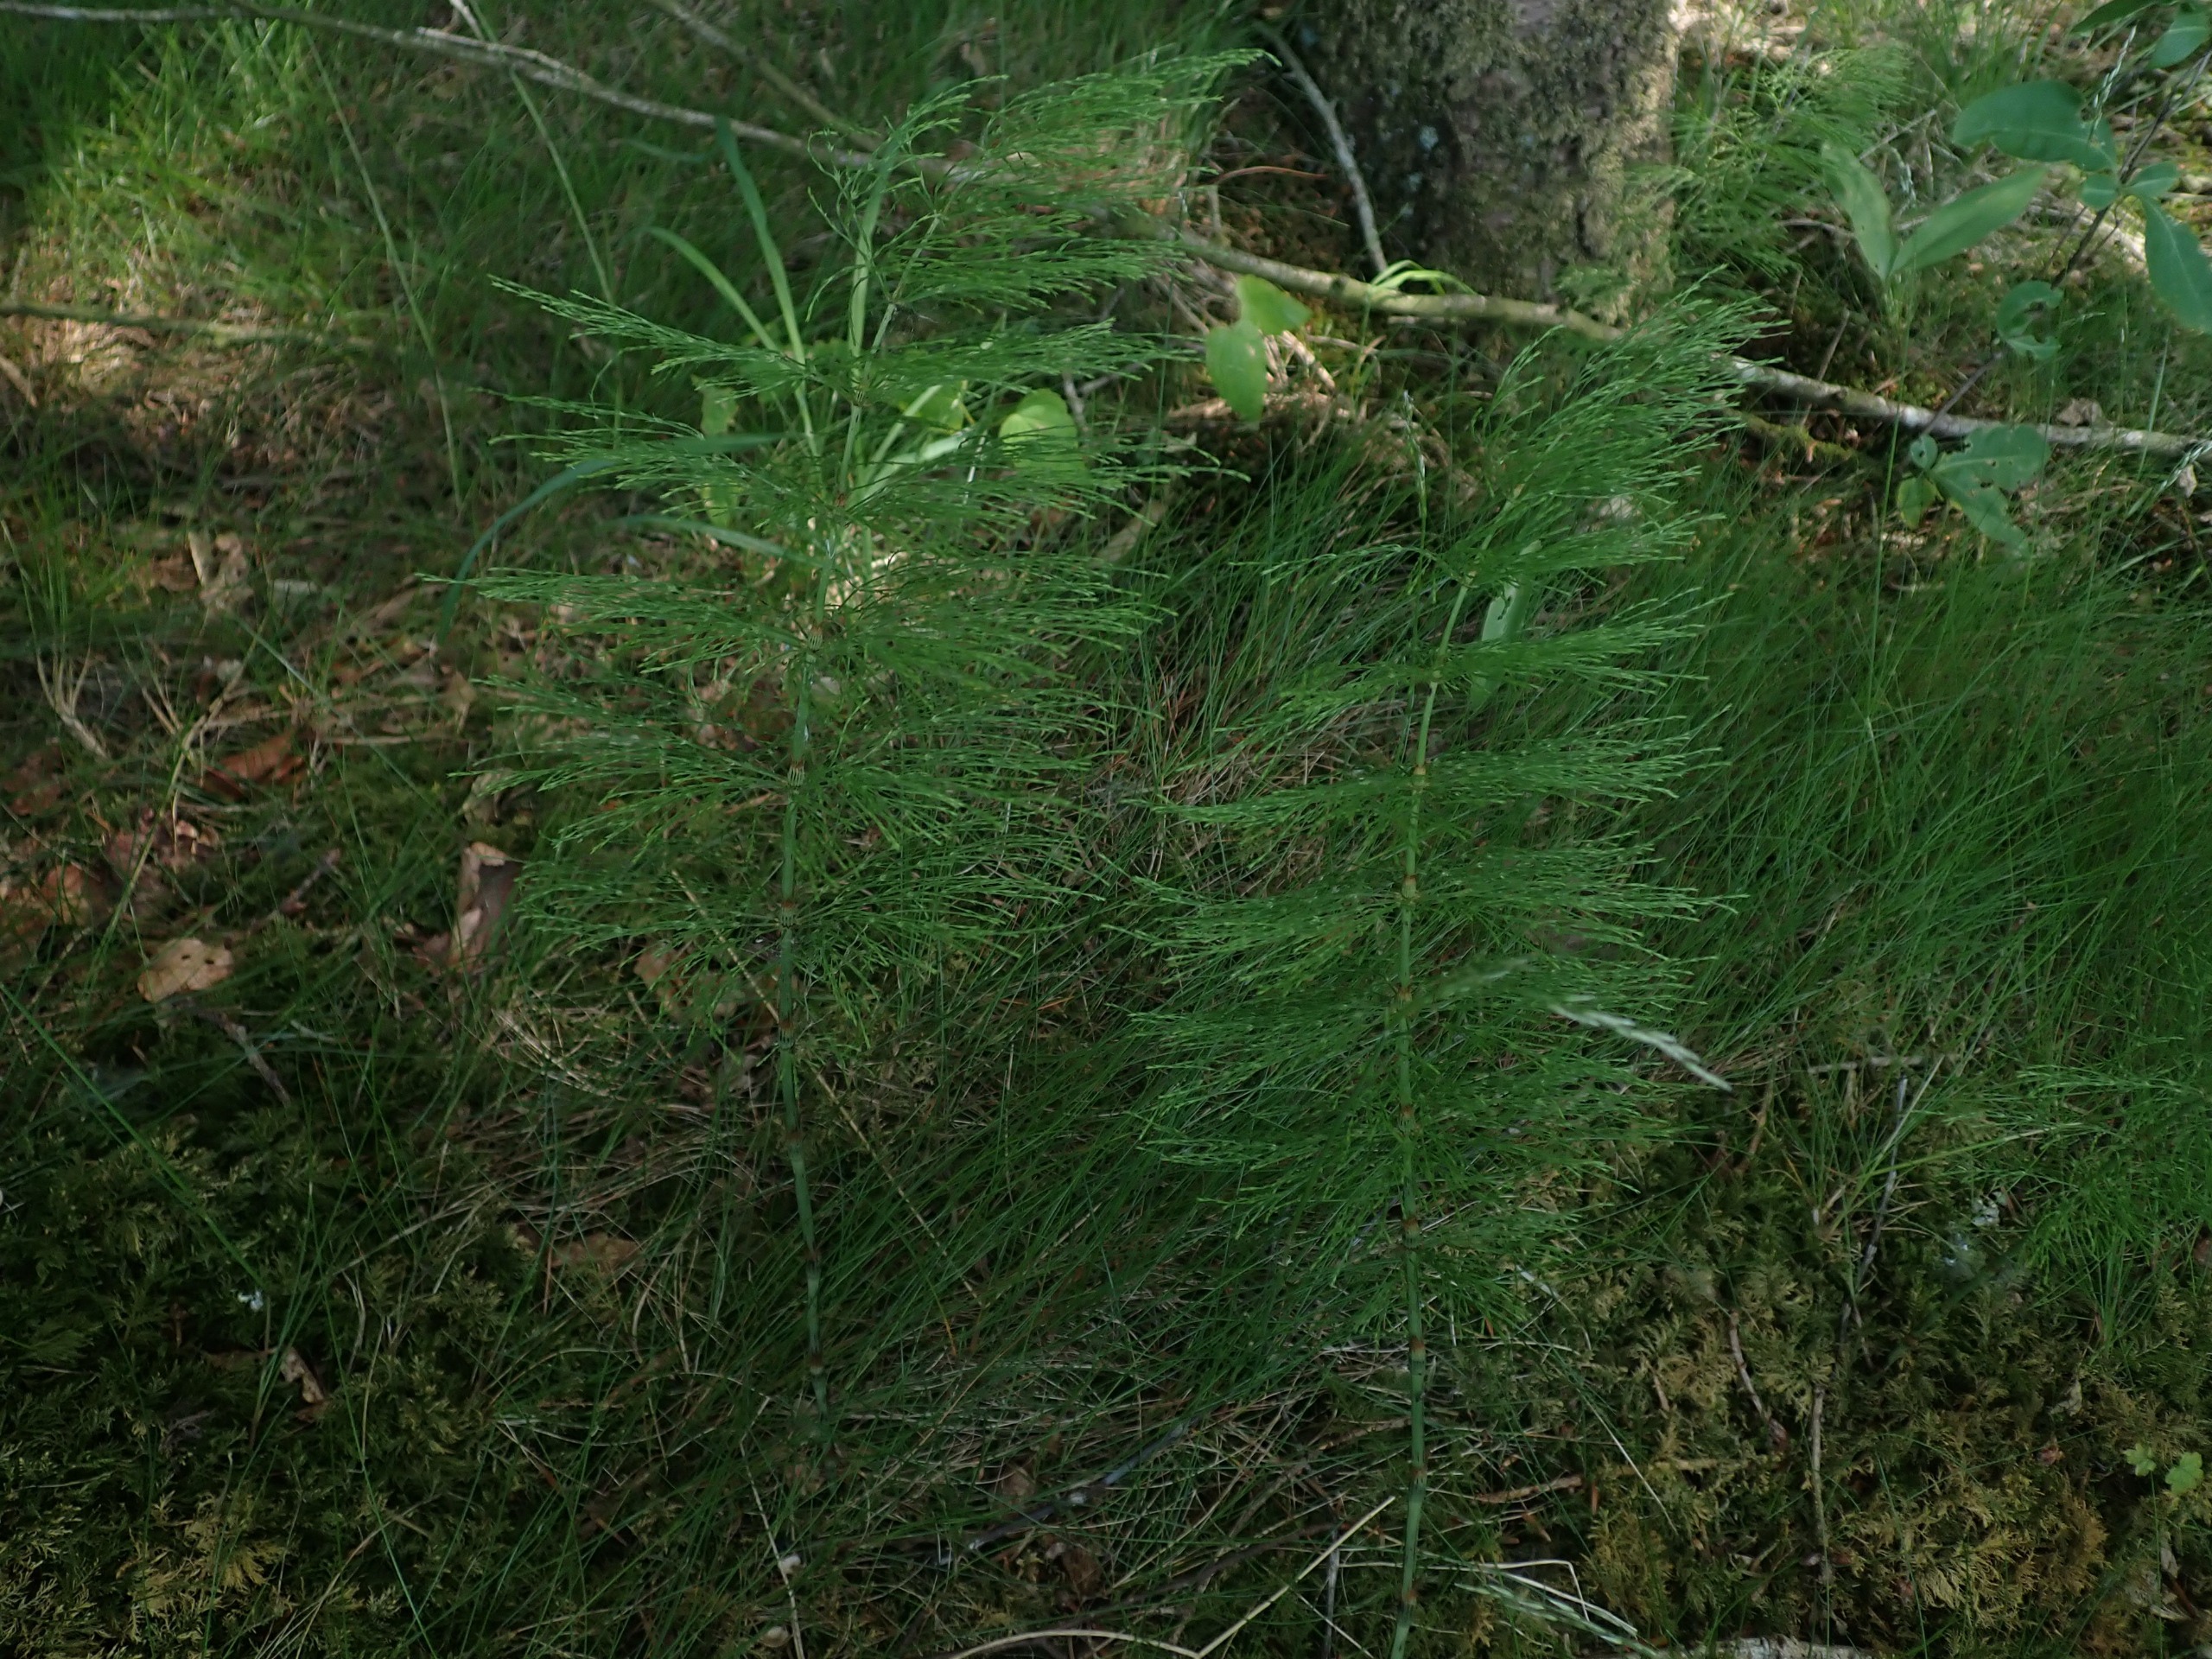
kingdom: Plantae
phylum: Tracheophyta
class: Polypodiopsida
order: Equisetales
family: Equisetaceae
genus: Equisetum
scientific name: Equisetum sylvaticum
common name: Skov-padderok
